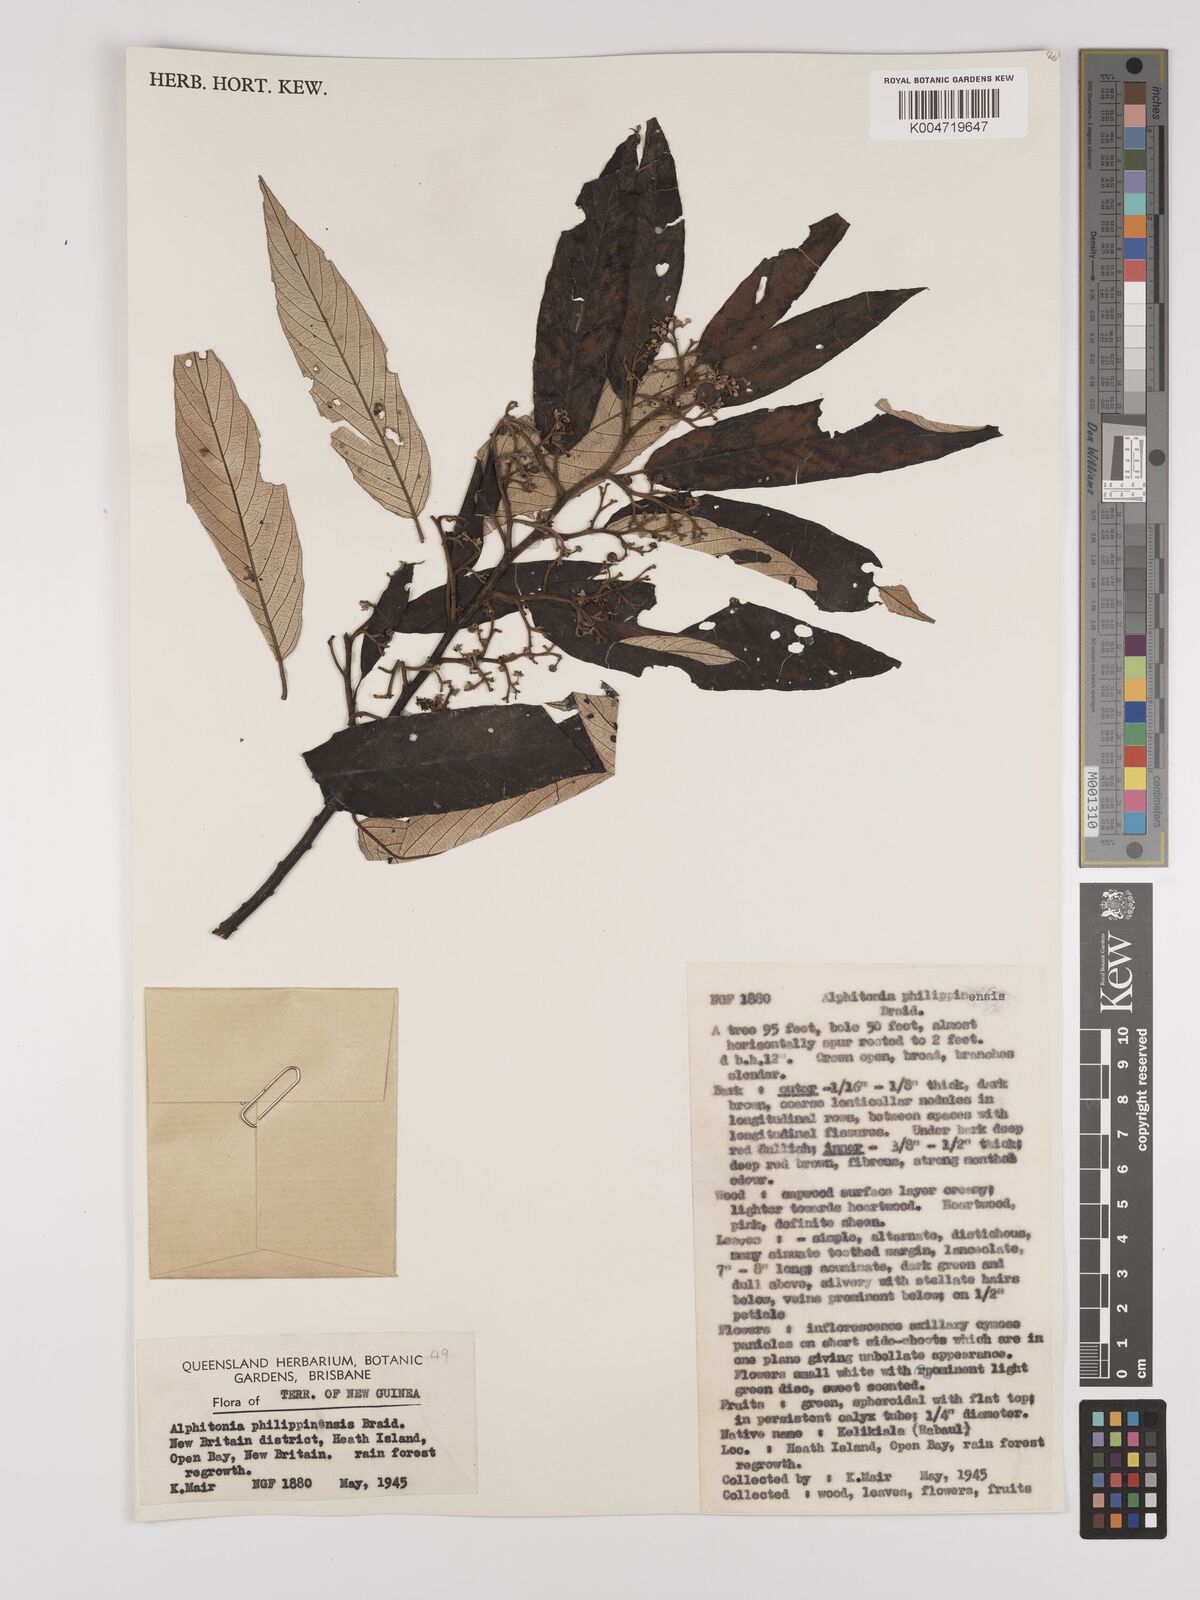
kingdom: Plantae
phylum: Tracheophyta
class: Magnoliopsida
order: Rosales
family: Rhamnaceae
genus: Alphitonia
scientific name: Alphitonia incana
